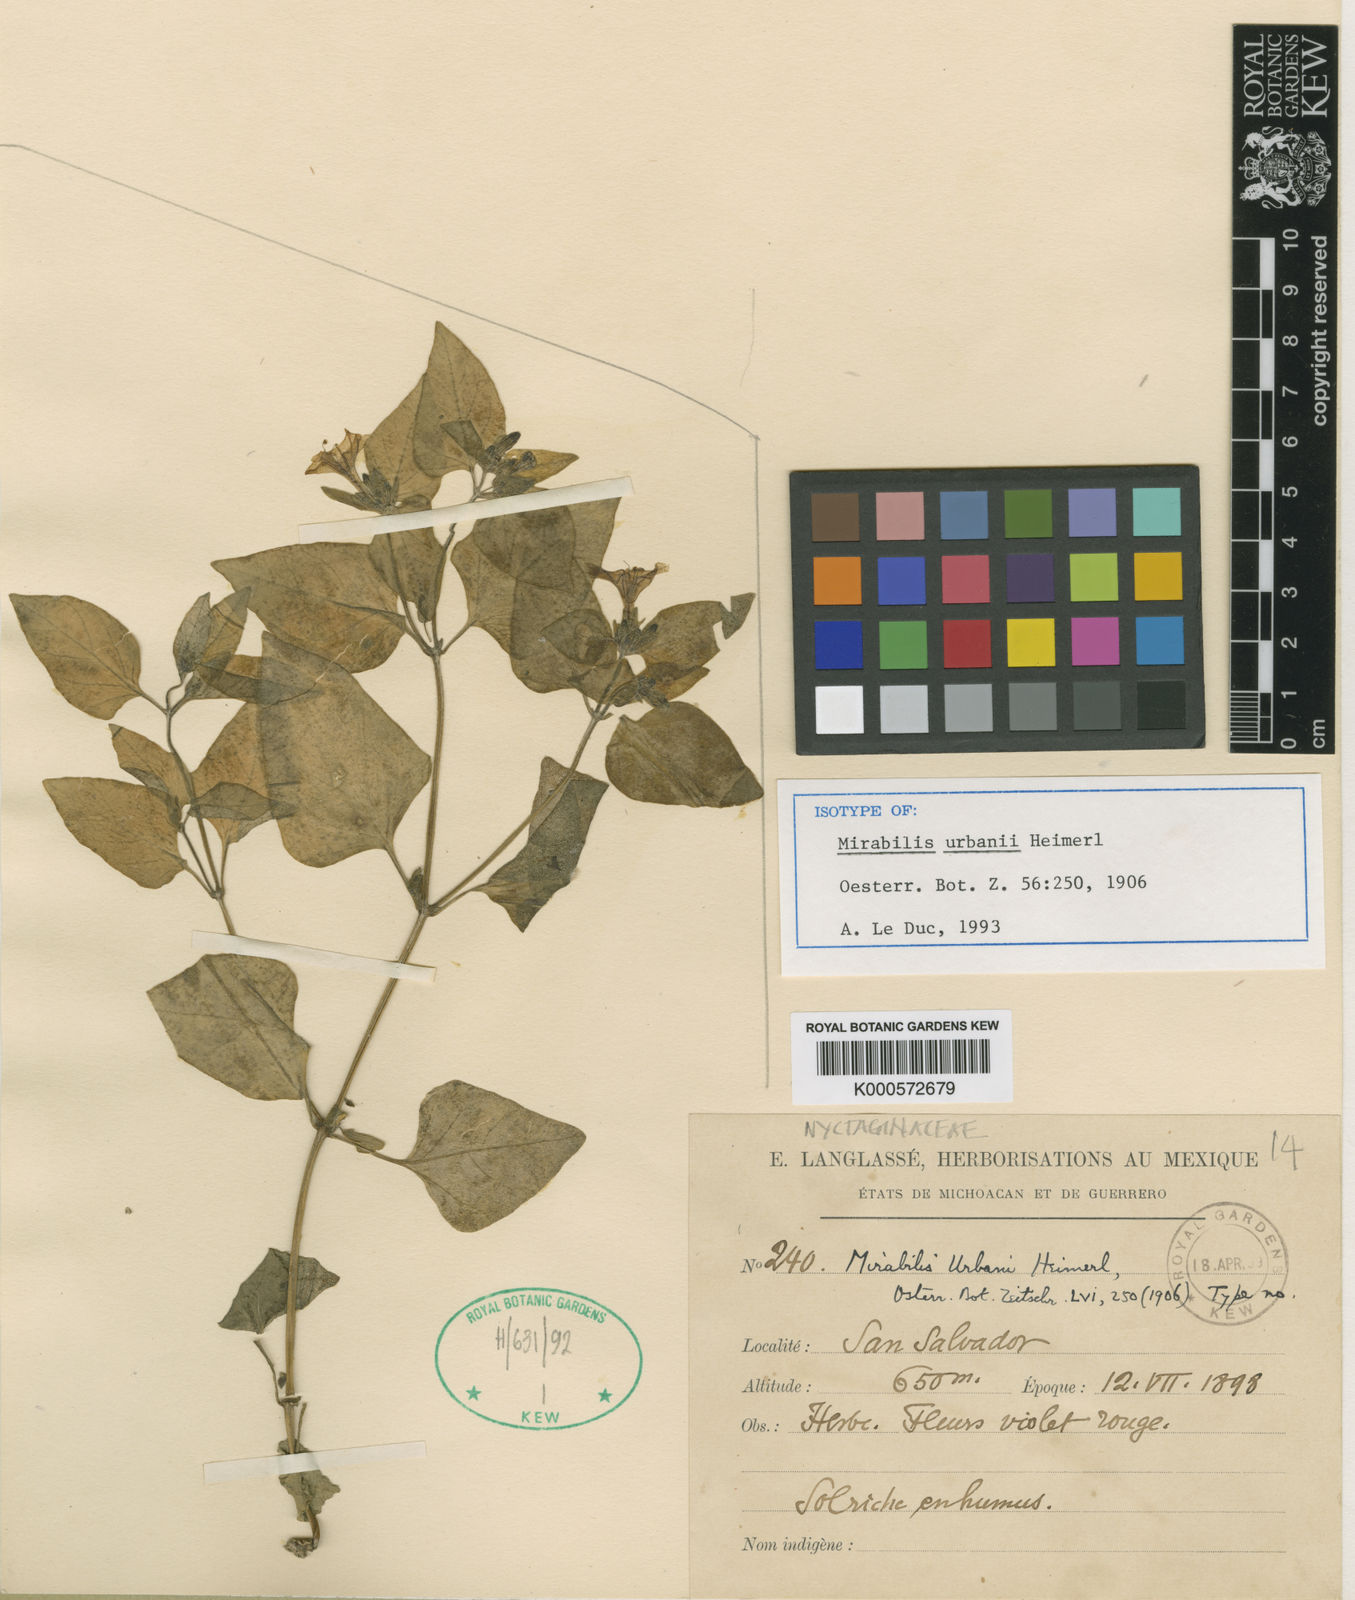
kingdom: Plantae
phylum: Tracheophyta
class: Magnoliopsida
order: Caryophyllales
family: Nyctaginaceae
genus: Mirabilis
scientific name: Mirabilis urbani
